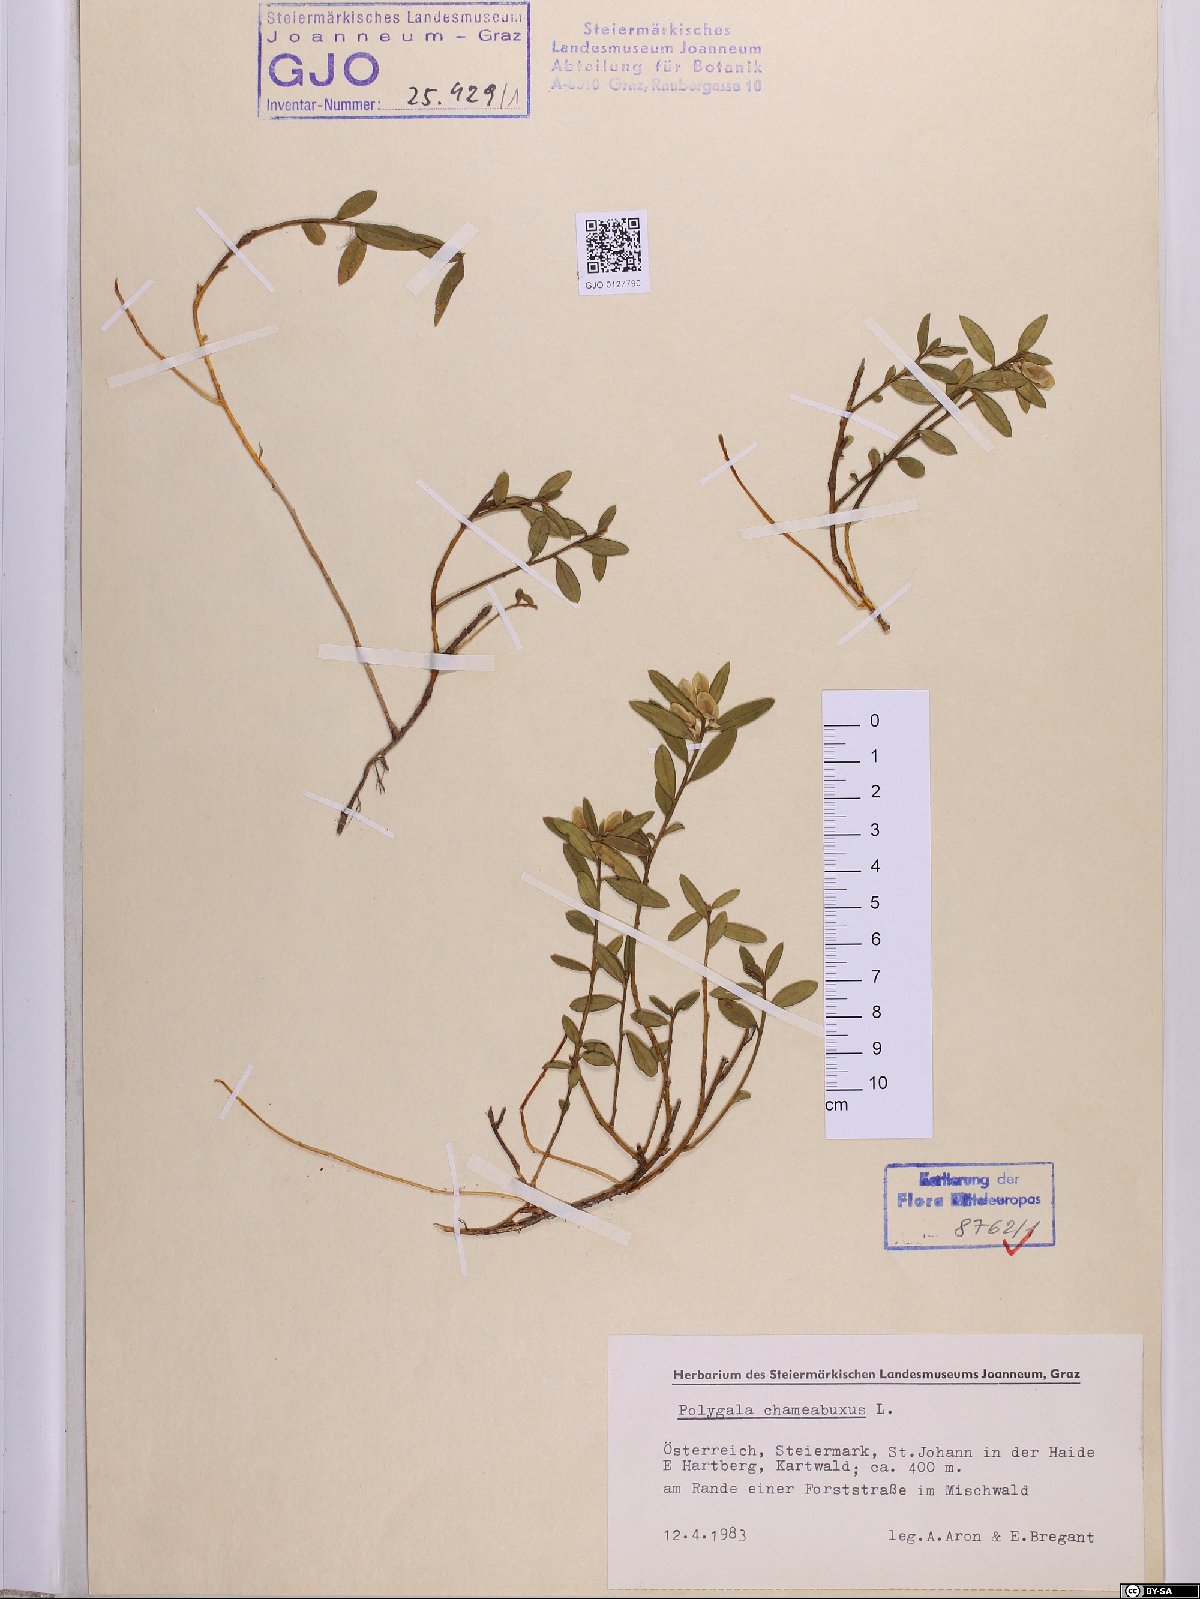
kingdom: Plantae
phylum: Tracheophyta
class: Magnoliopsida
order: Fabales
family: Polygalaceae
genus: Polygaloides
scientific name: Polygaloides chamaebuxus
